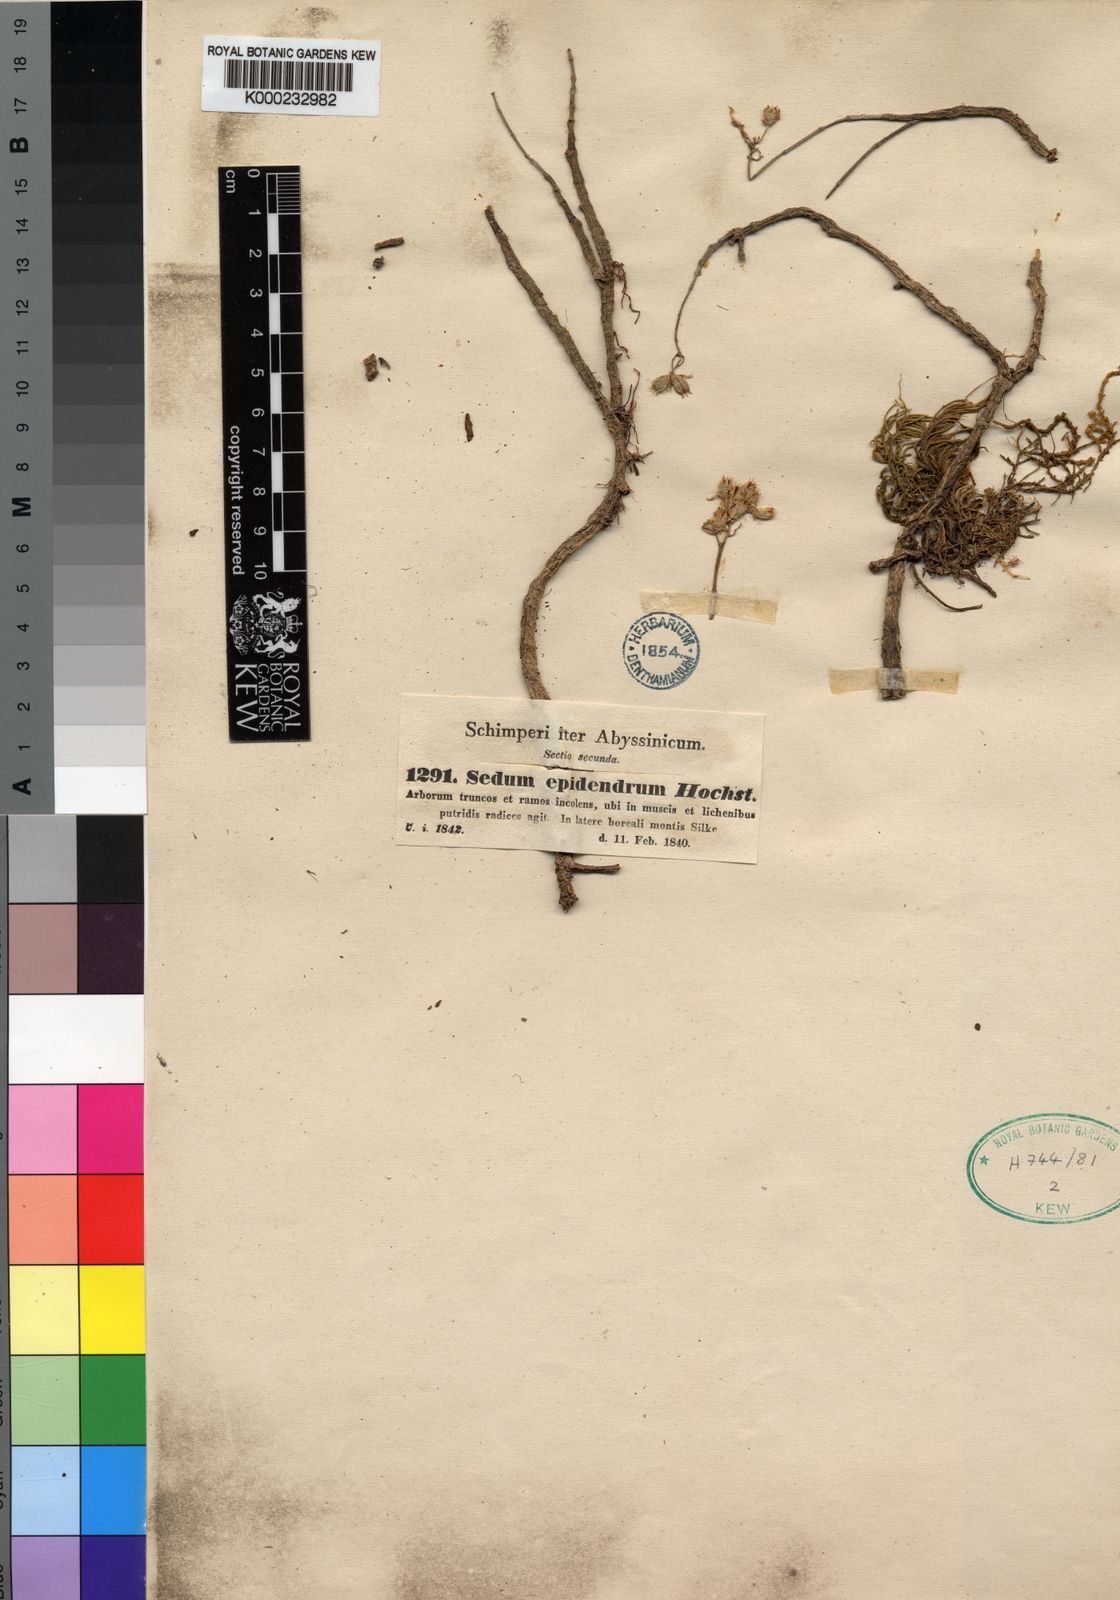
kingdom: Plantae
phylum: Tracheophyta
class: Magnoliopsida
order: Saxifragales
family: Crassulaceae
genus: Sedum
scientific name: Sedum epidendrum
